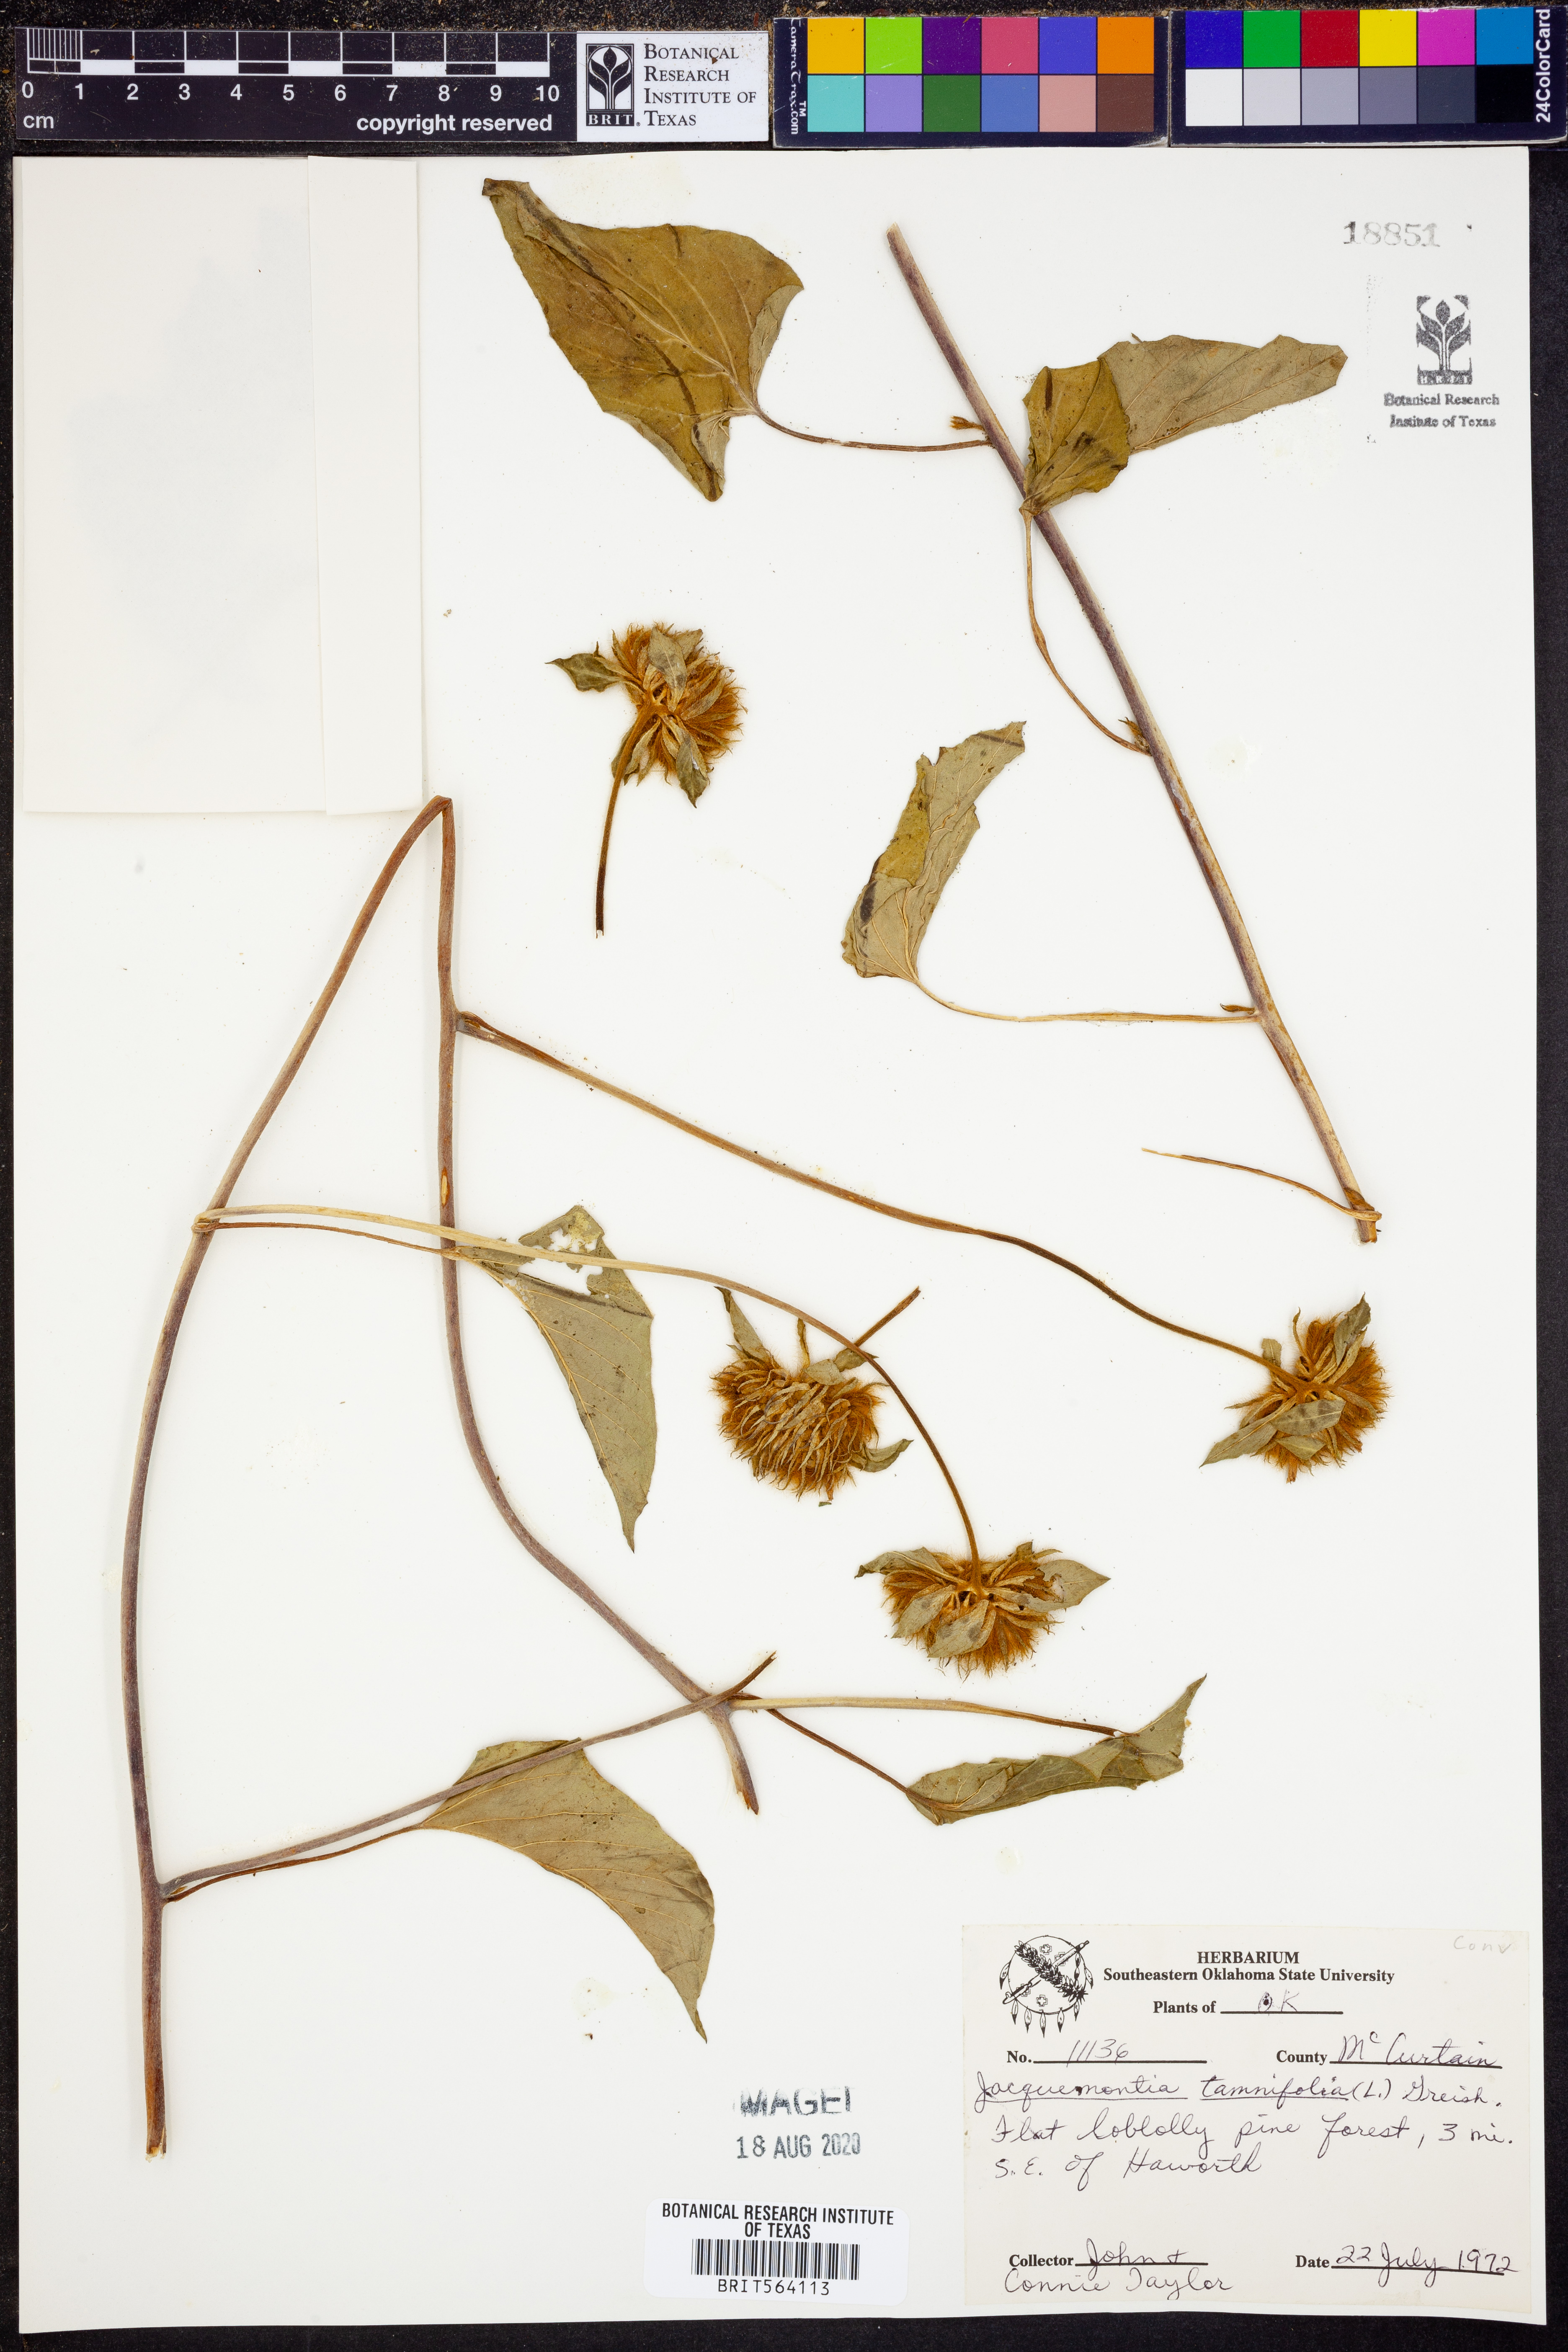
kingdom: Plantae
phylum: Tracheophyta
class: Magnoliopsida
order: Solanales
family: Convolvulaceae
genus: Jacquemontia
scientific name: Jacquemontia tamnifolia
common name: Hairy clustervine
